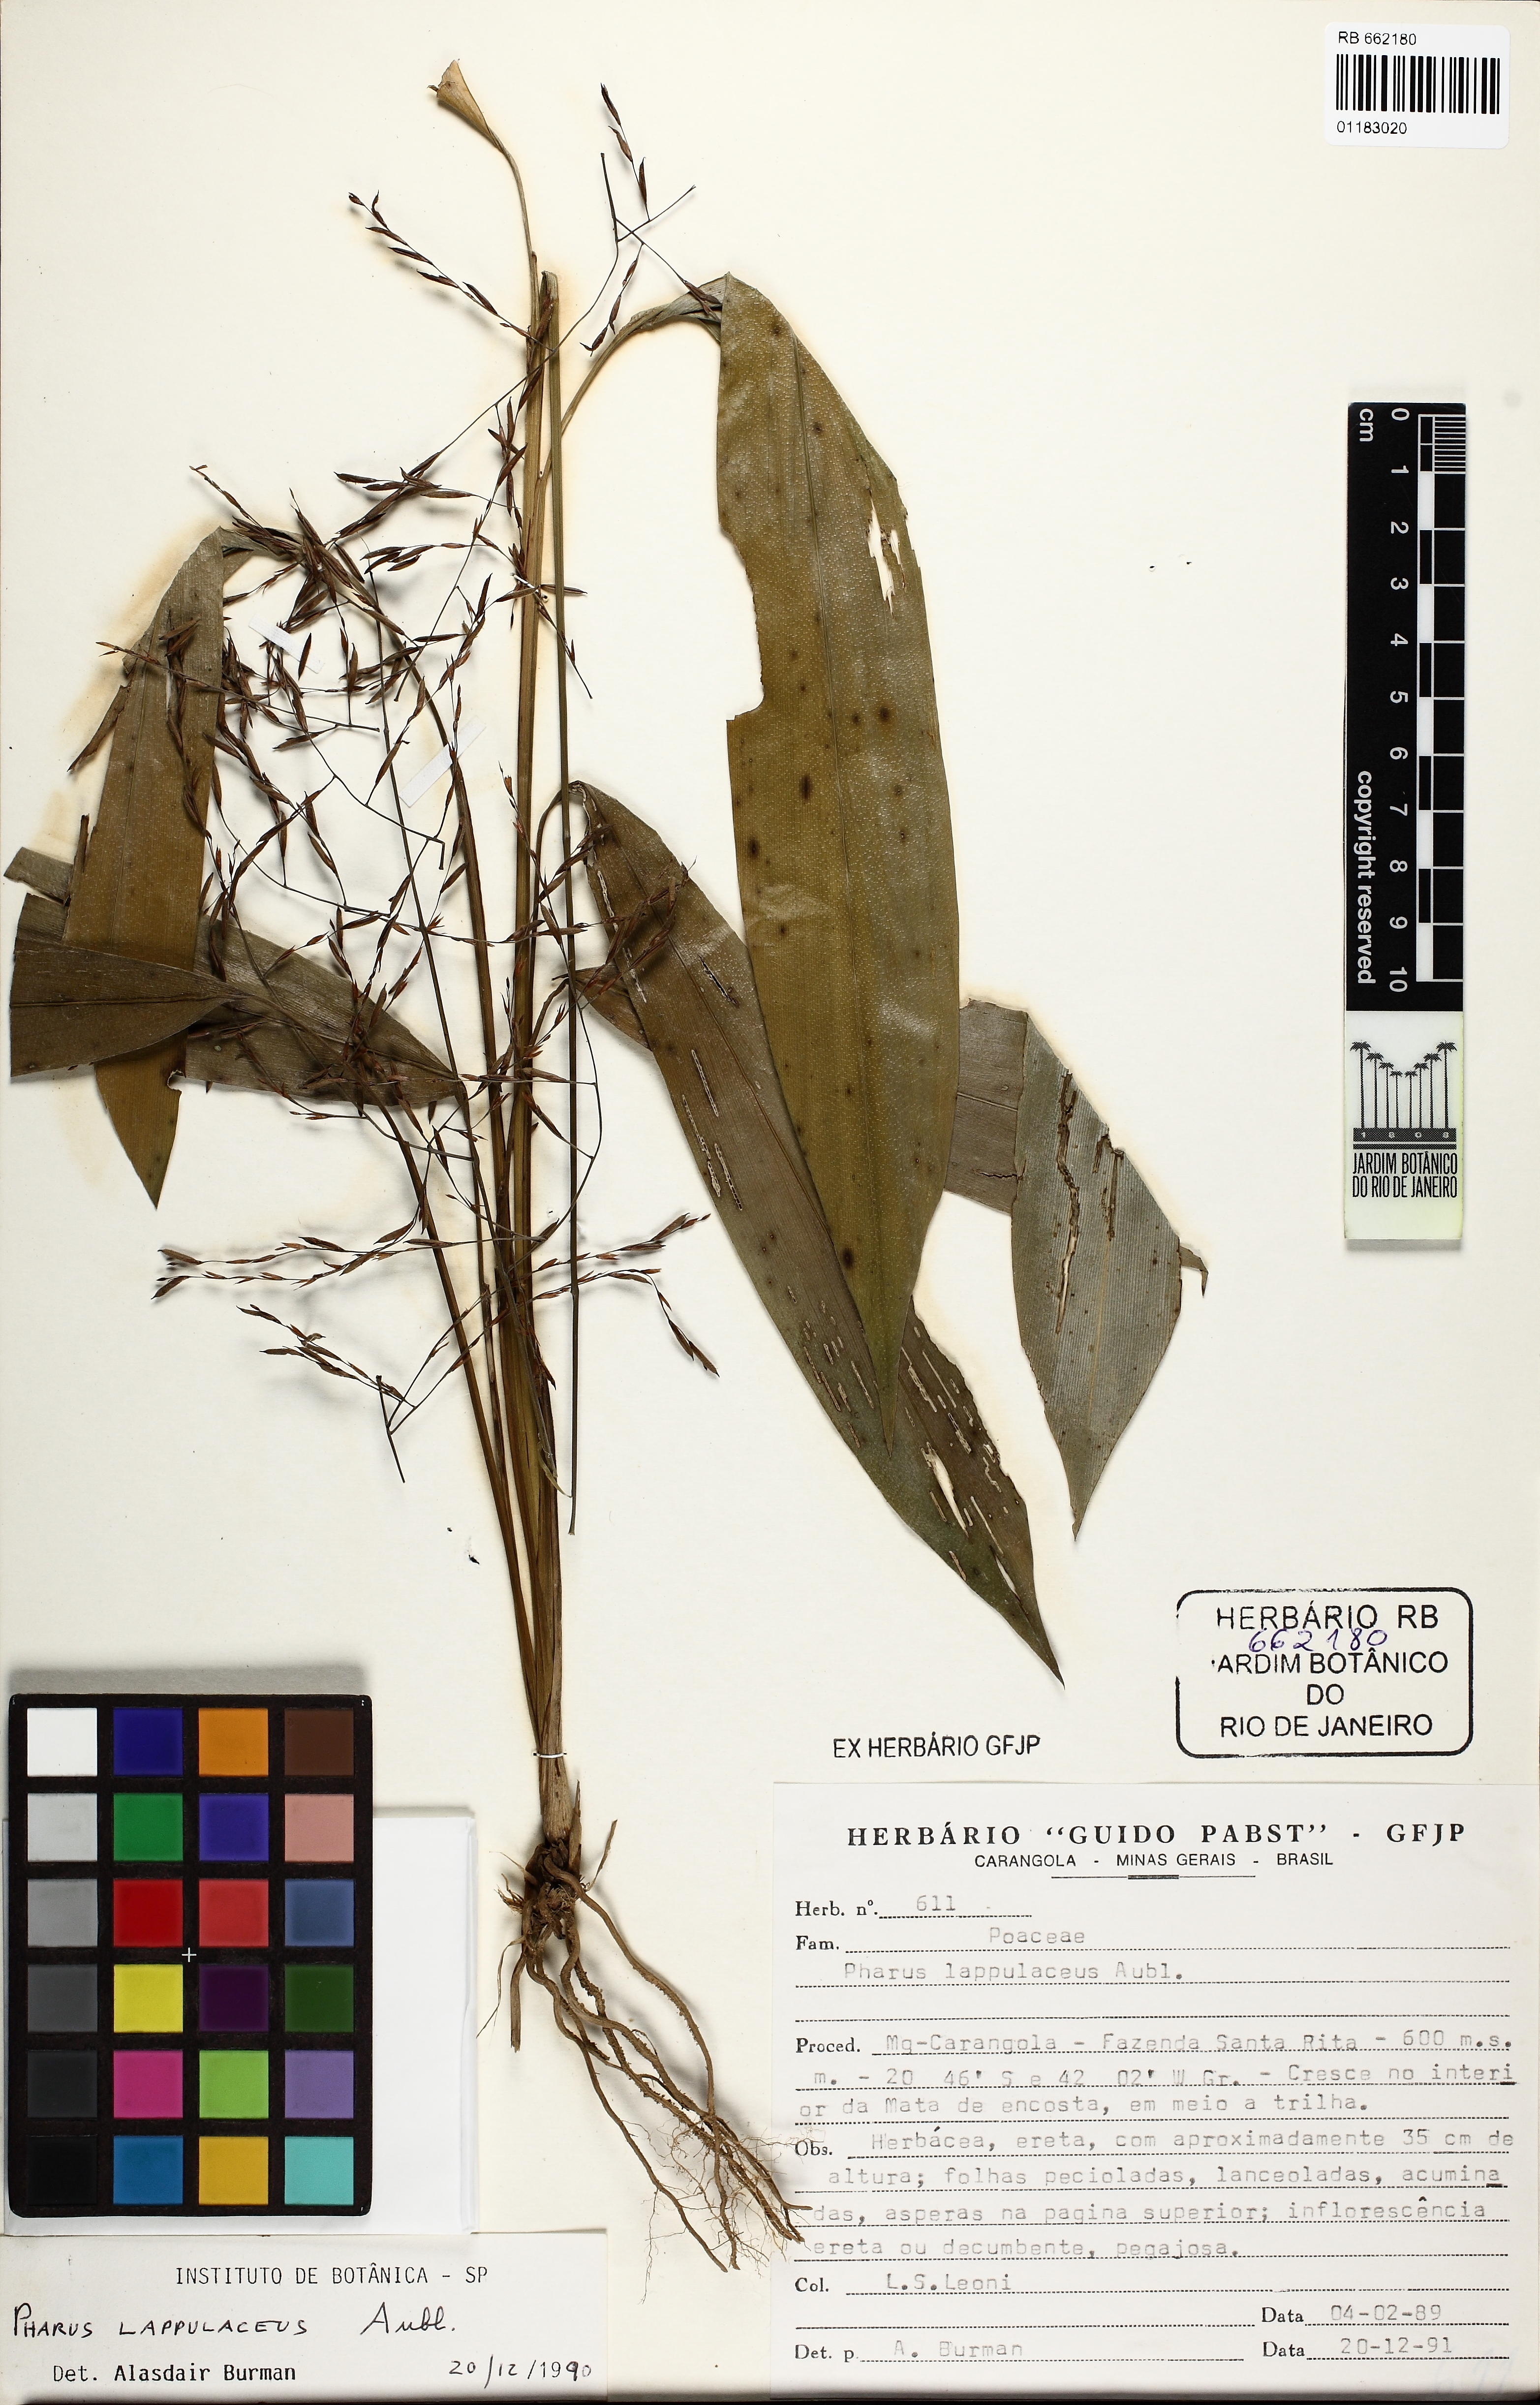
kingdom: Plantae
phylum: Tracheophyta
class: Liliopsida
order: Poales
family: Poaceae
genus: Pharus
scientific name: Pharus lappulaceus
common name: Creeping leafstalk grass
